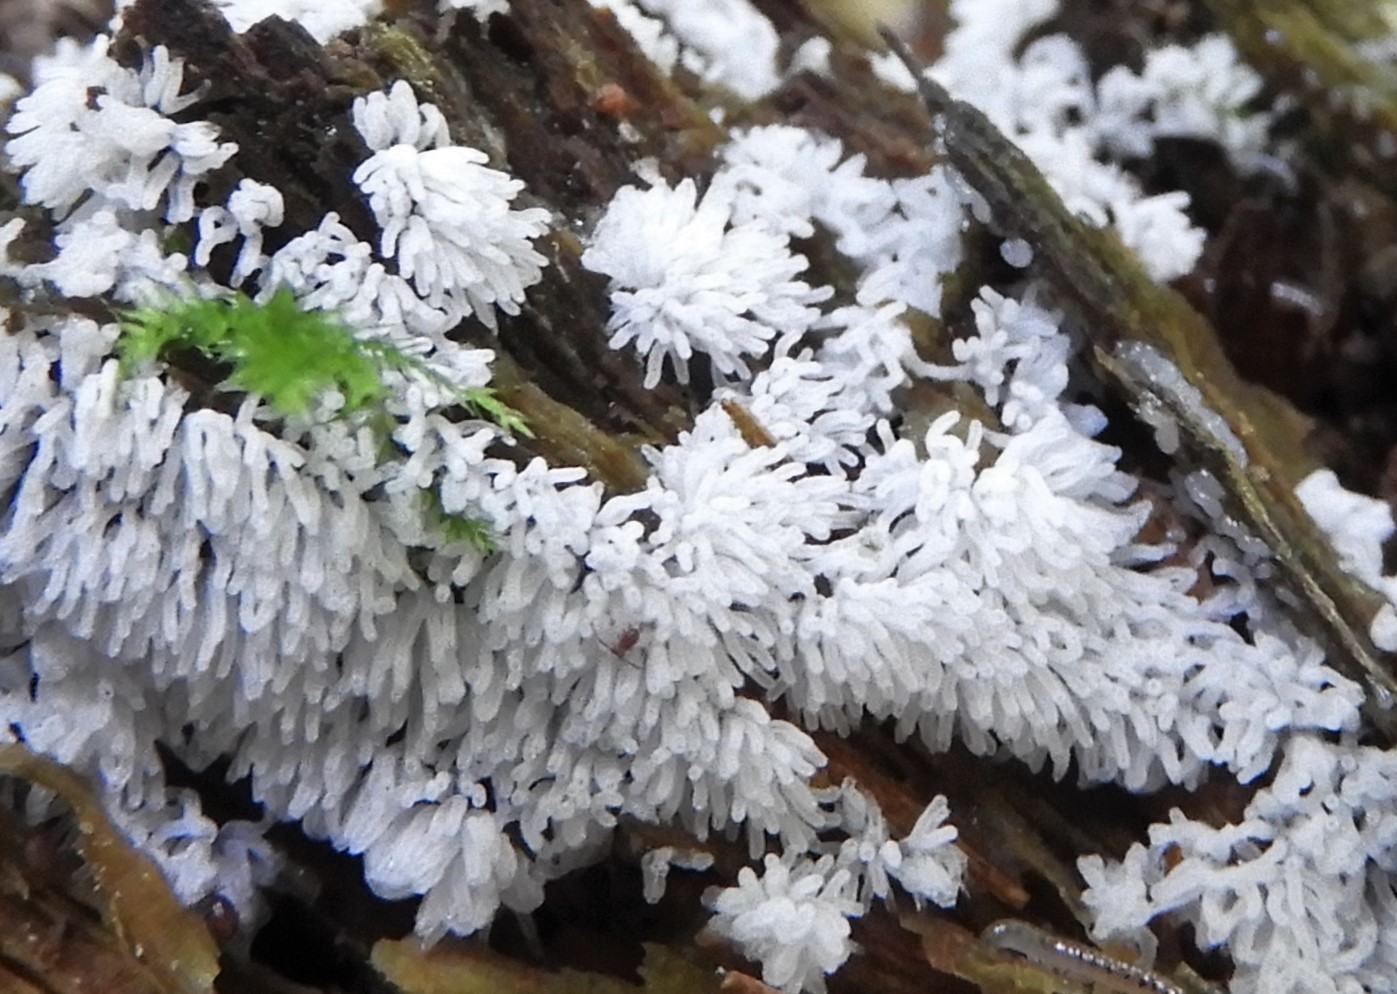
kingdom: Protozoa
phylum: Mycetozoa
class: Protosteliomycetes
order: Ceratiomyxales
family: Ceratiomyxaceae
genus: Ceratiomyxa
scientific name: Ceratiomyxa fruticulosa
